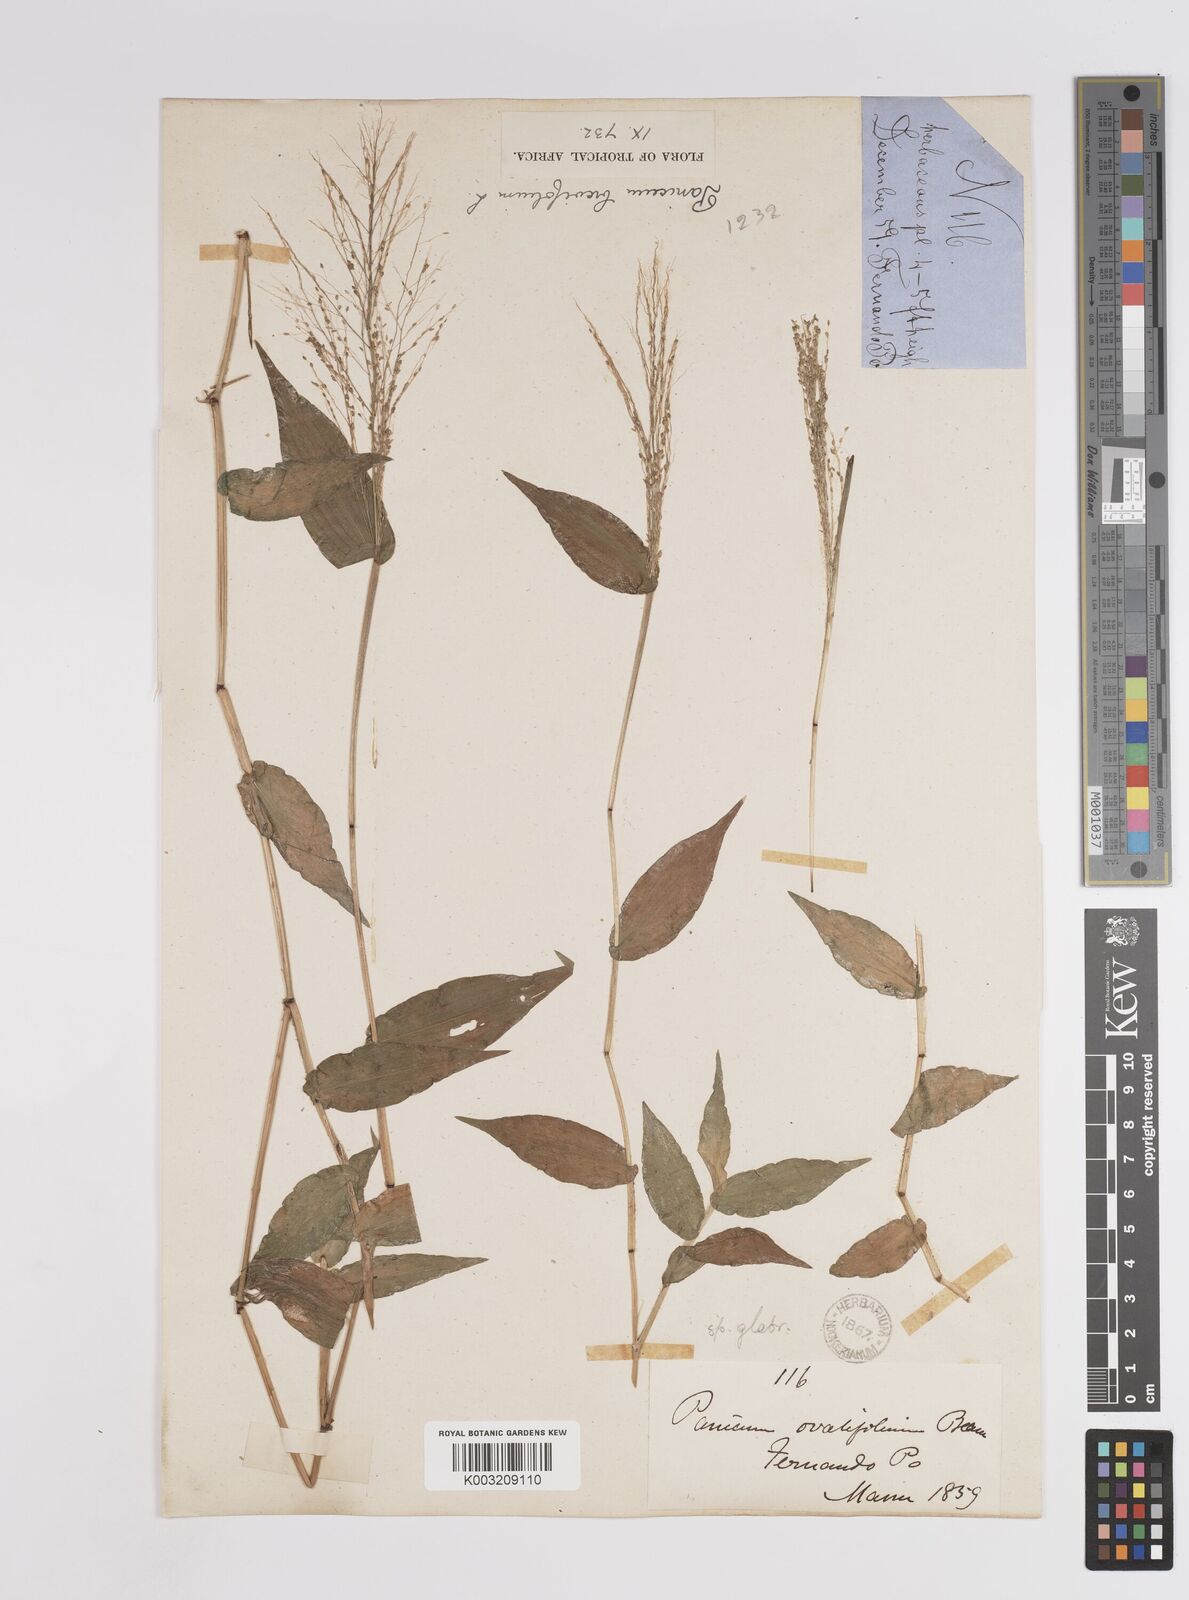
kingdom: Plantae
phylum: Tracheophyta
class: Liliopsida
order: Poales
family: Poaceae
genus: Panicum
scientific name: Panicum brevifolium
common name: Shortleaf panic grass
